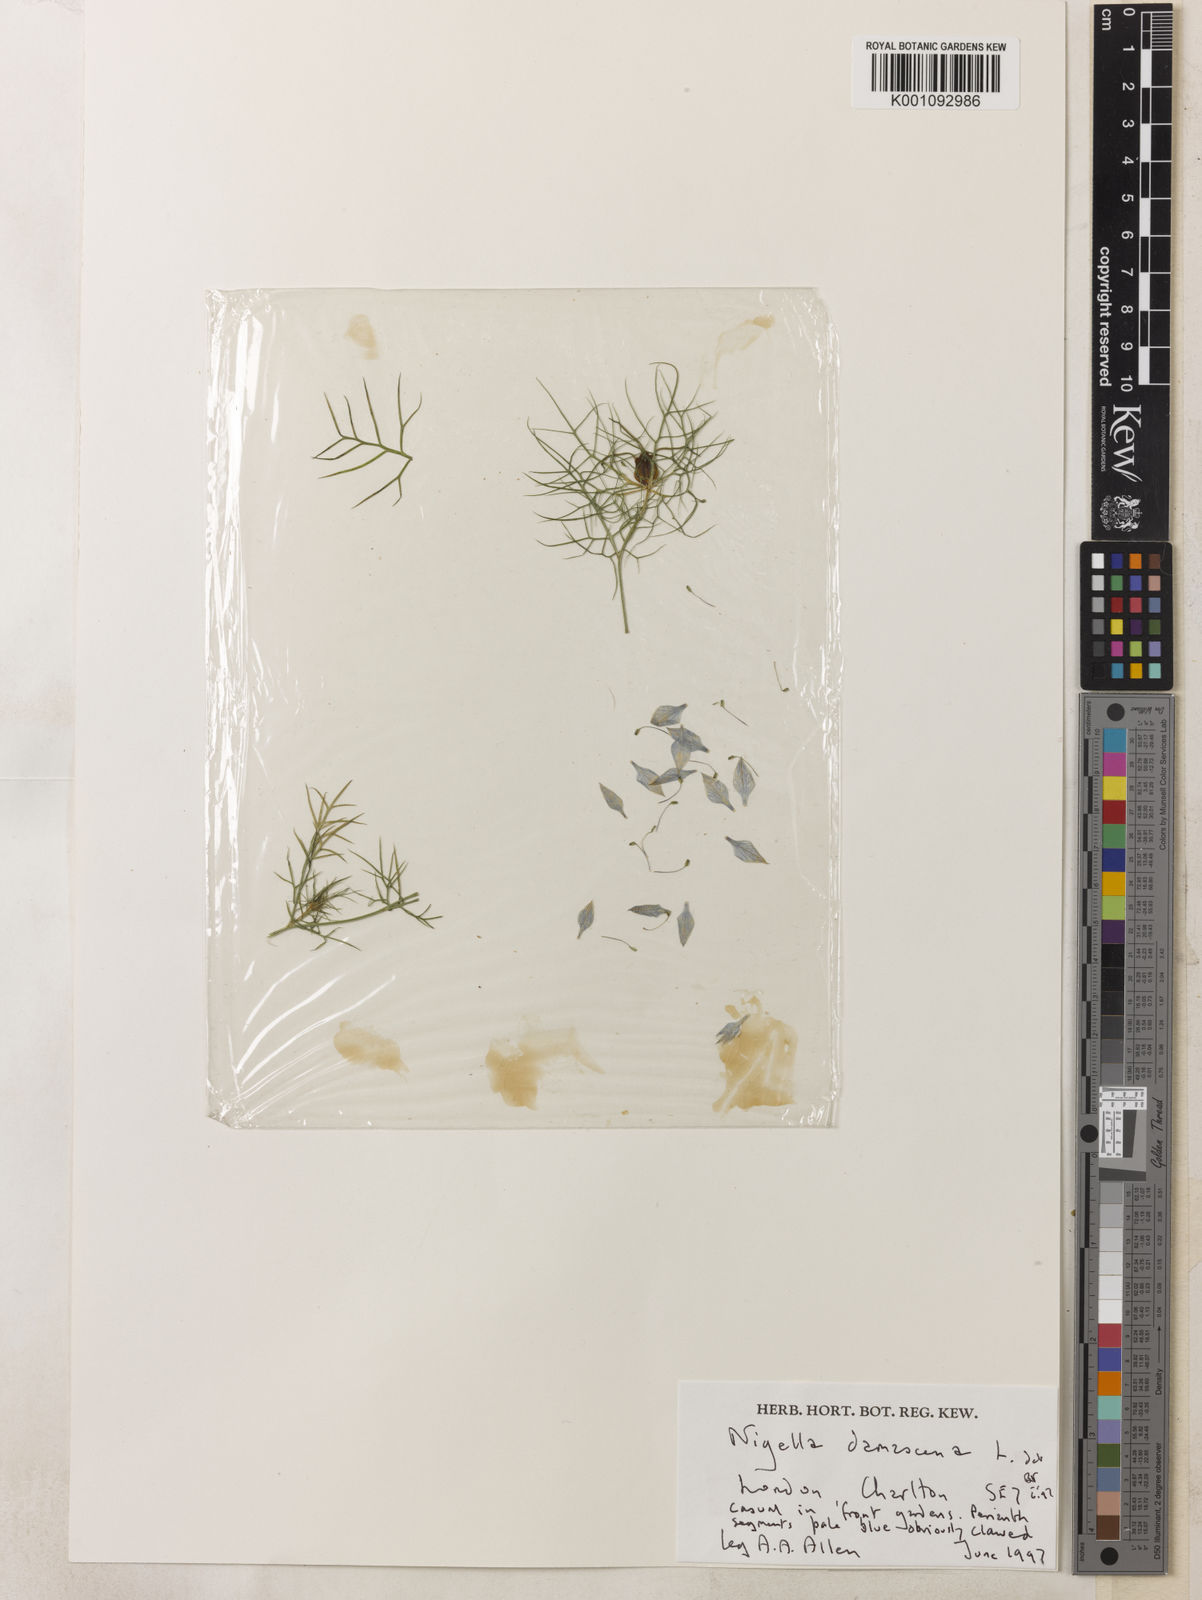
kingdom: Plantae
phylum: Tracheophyta
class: Magnoliopsida
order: Ranunculales
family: Ranunculaceae
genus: Nigella
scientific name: Nigella damascena
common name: Love-in-a-mist
